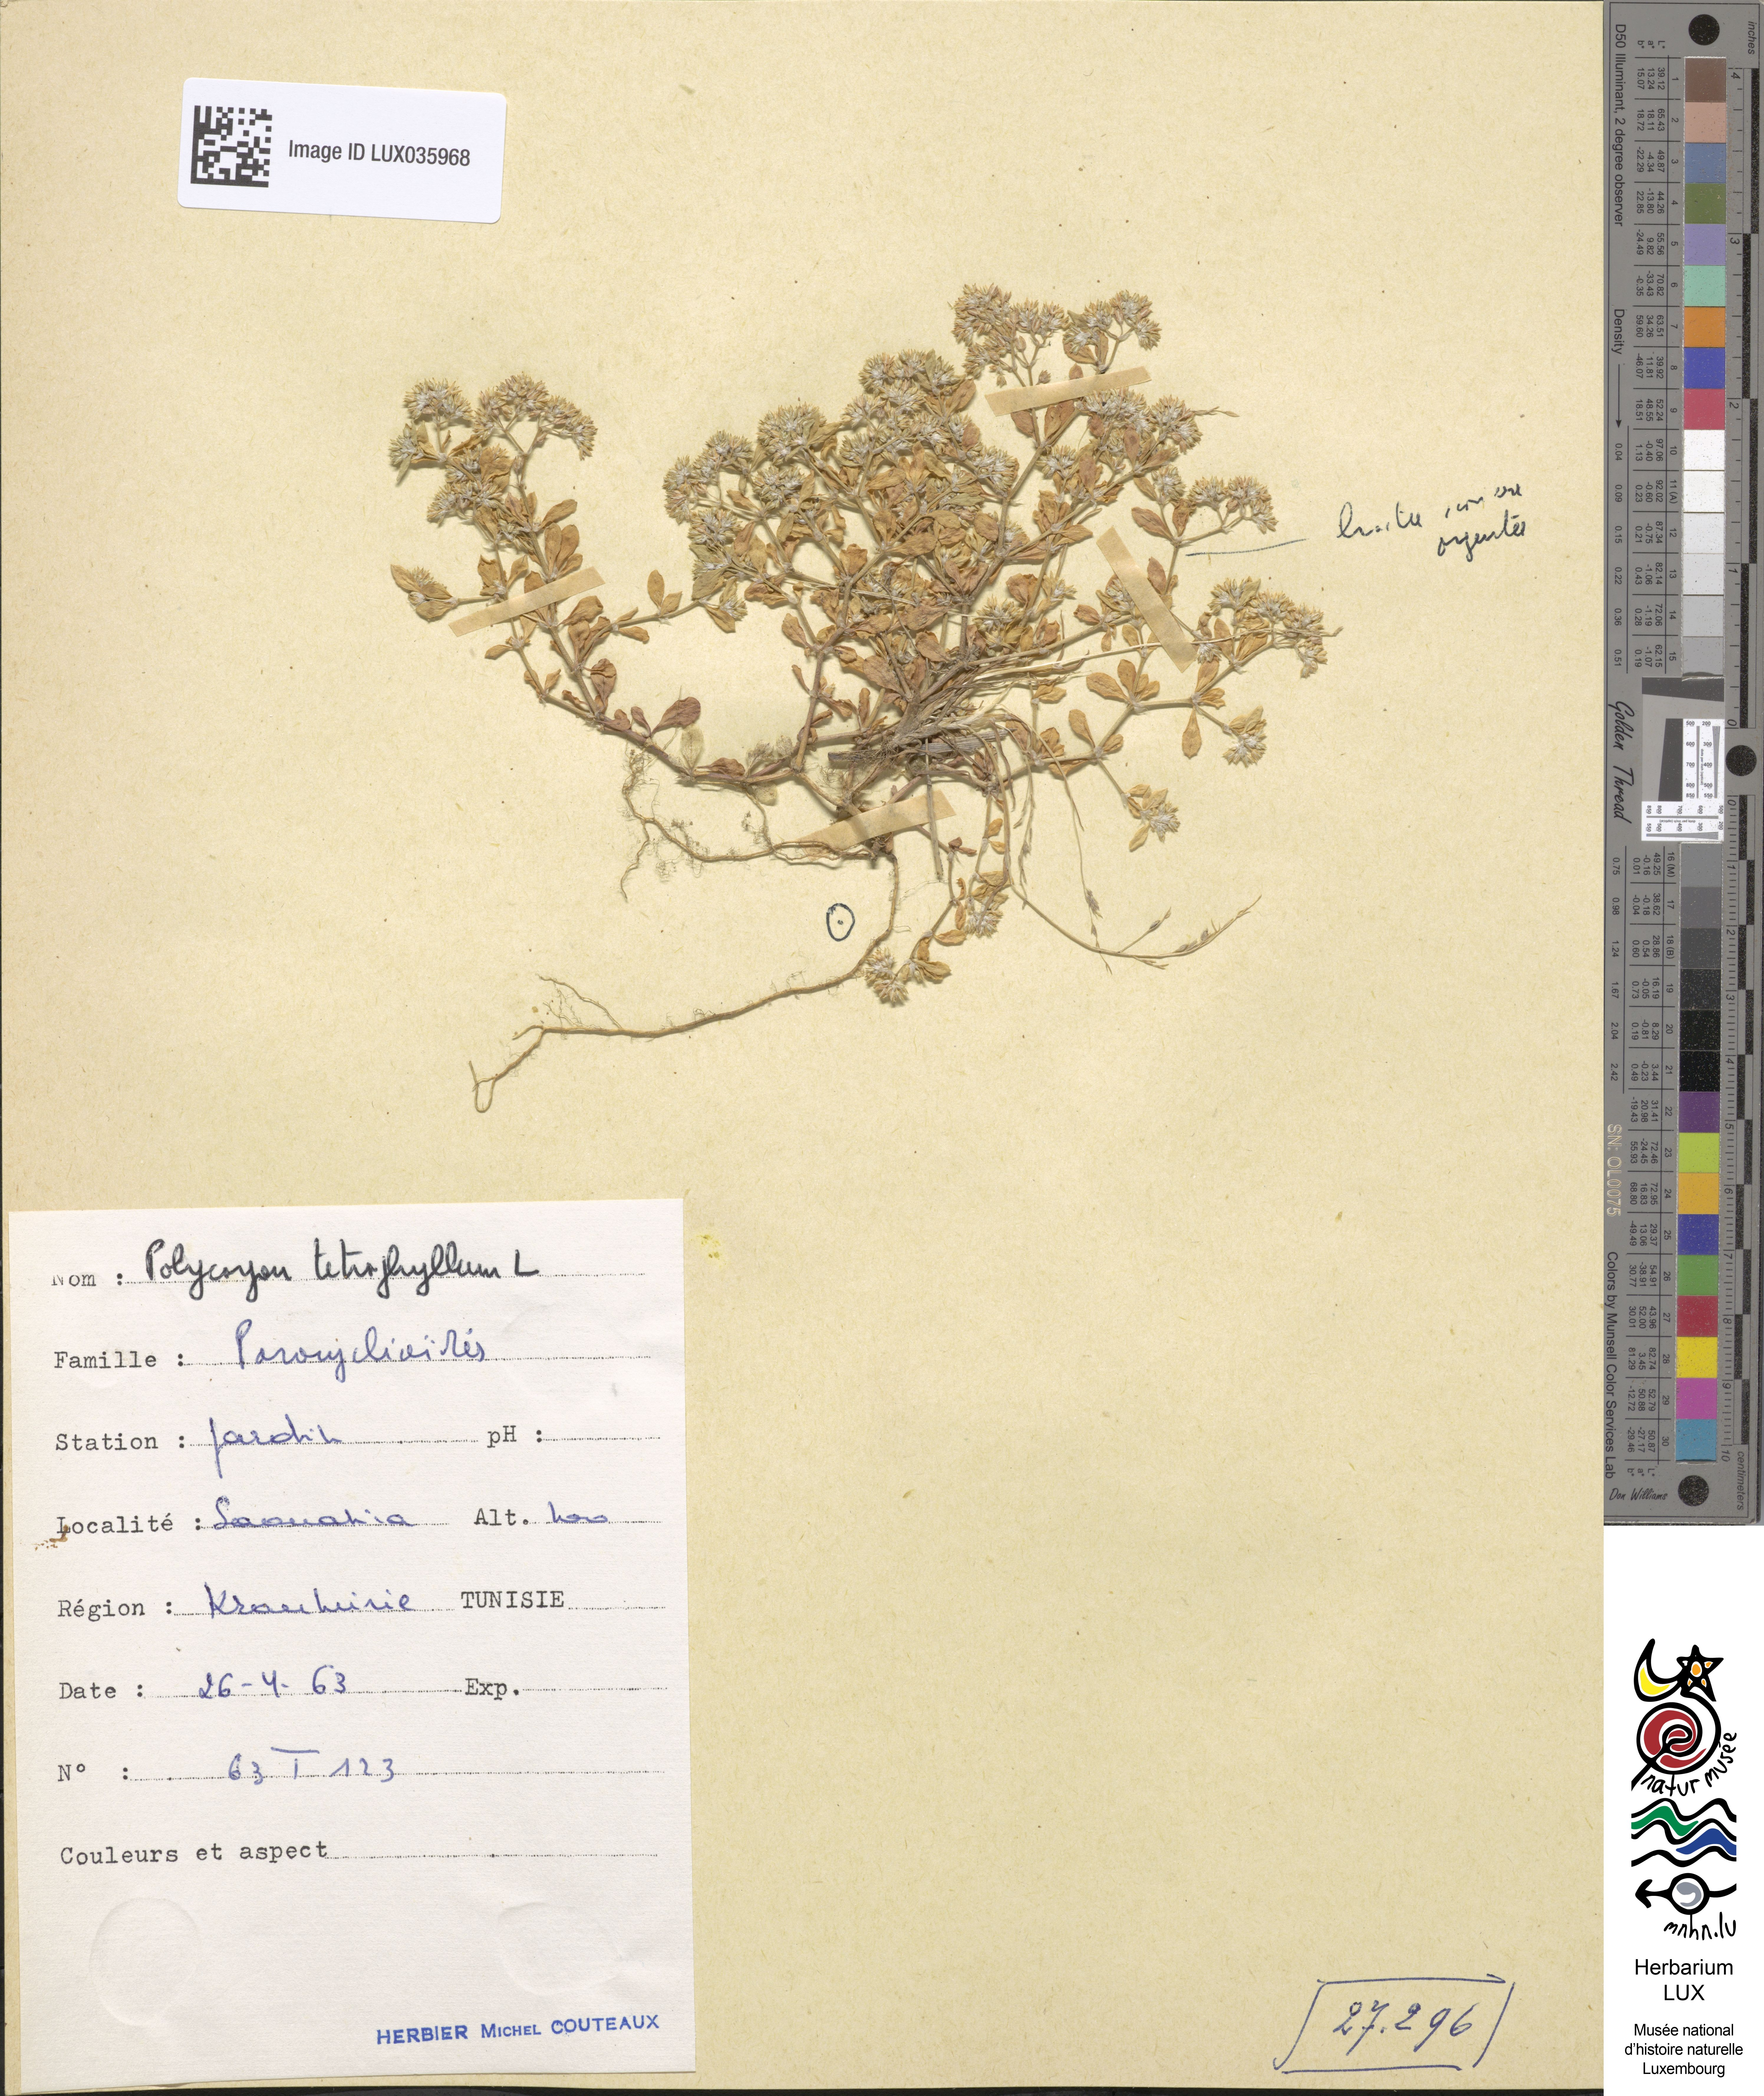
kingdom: Plantae
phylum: Tracheophyta
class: Magnoliopsida
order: Caryophyllales
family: Caryophyllaceae
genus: Polycarpon
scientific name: Polycarpon tetraphyllum
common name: Four-leaved all-seed
